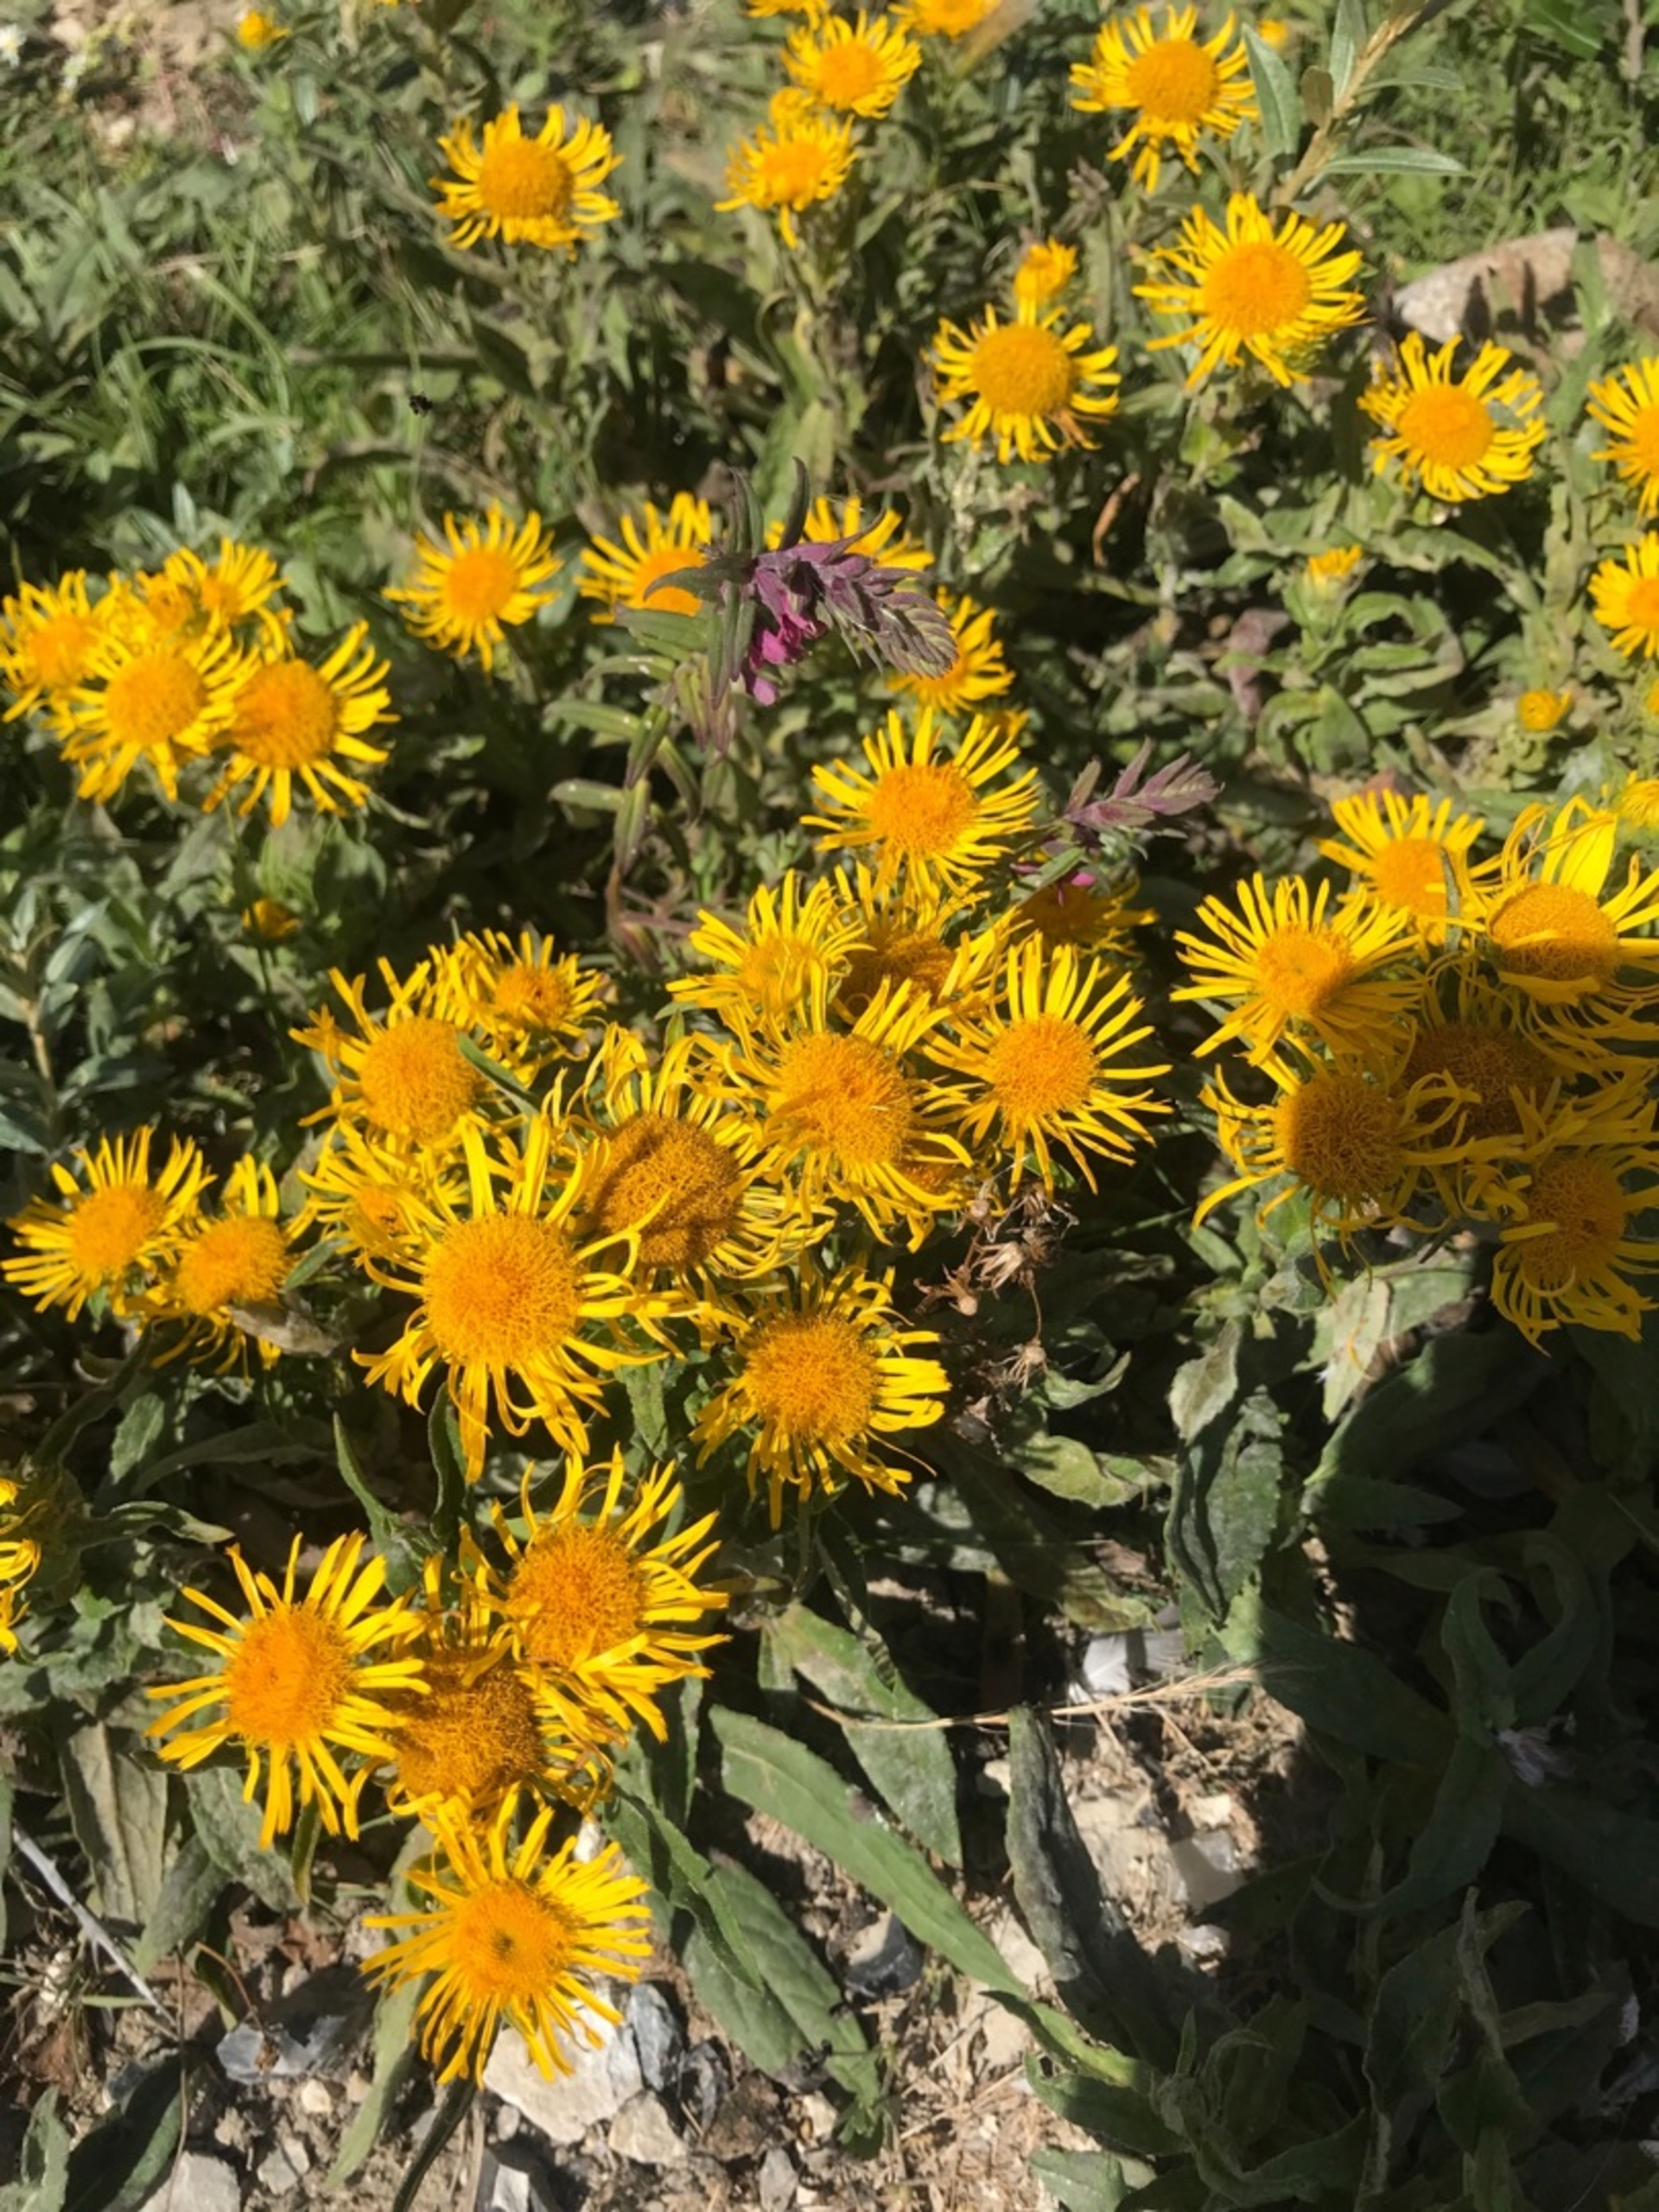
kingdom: Plantae
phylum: Tracheophyta
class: Magnoliopsida
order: Asterales
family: Asteraceae
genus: Pentanema
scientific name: Pentanema britannicum
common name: Soløje-alant
